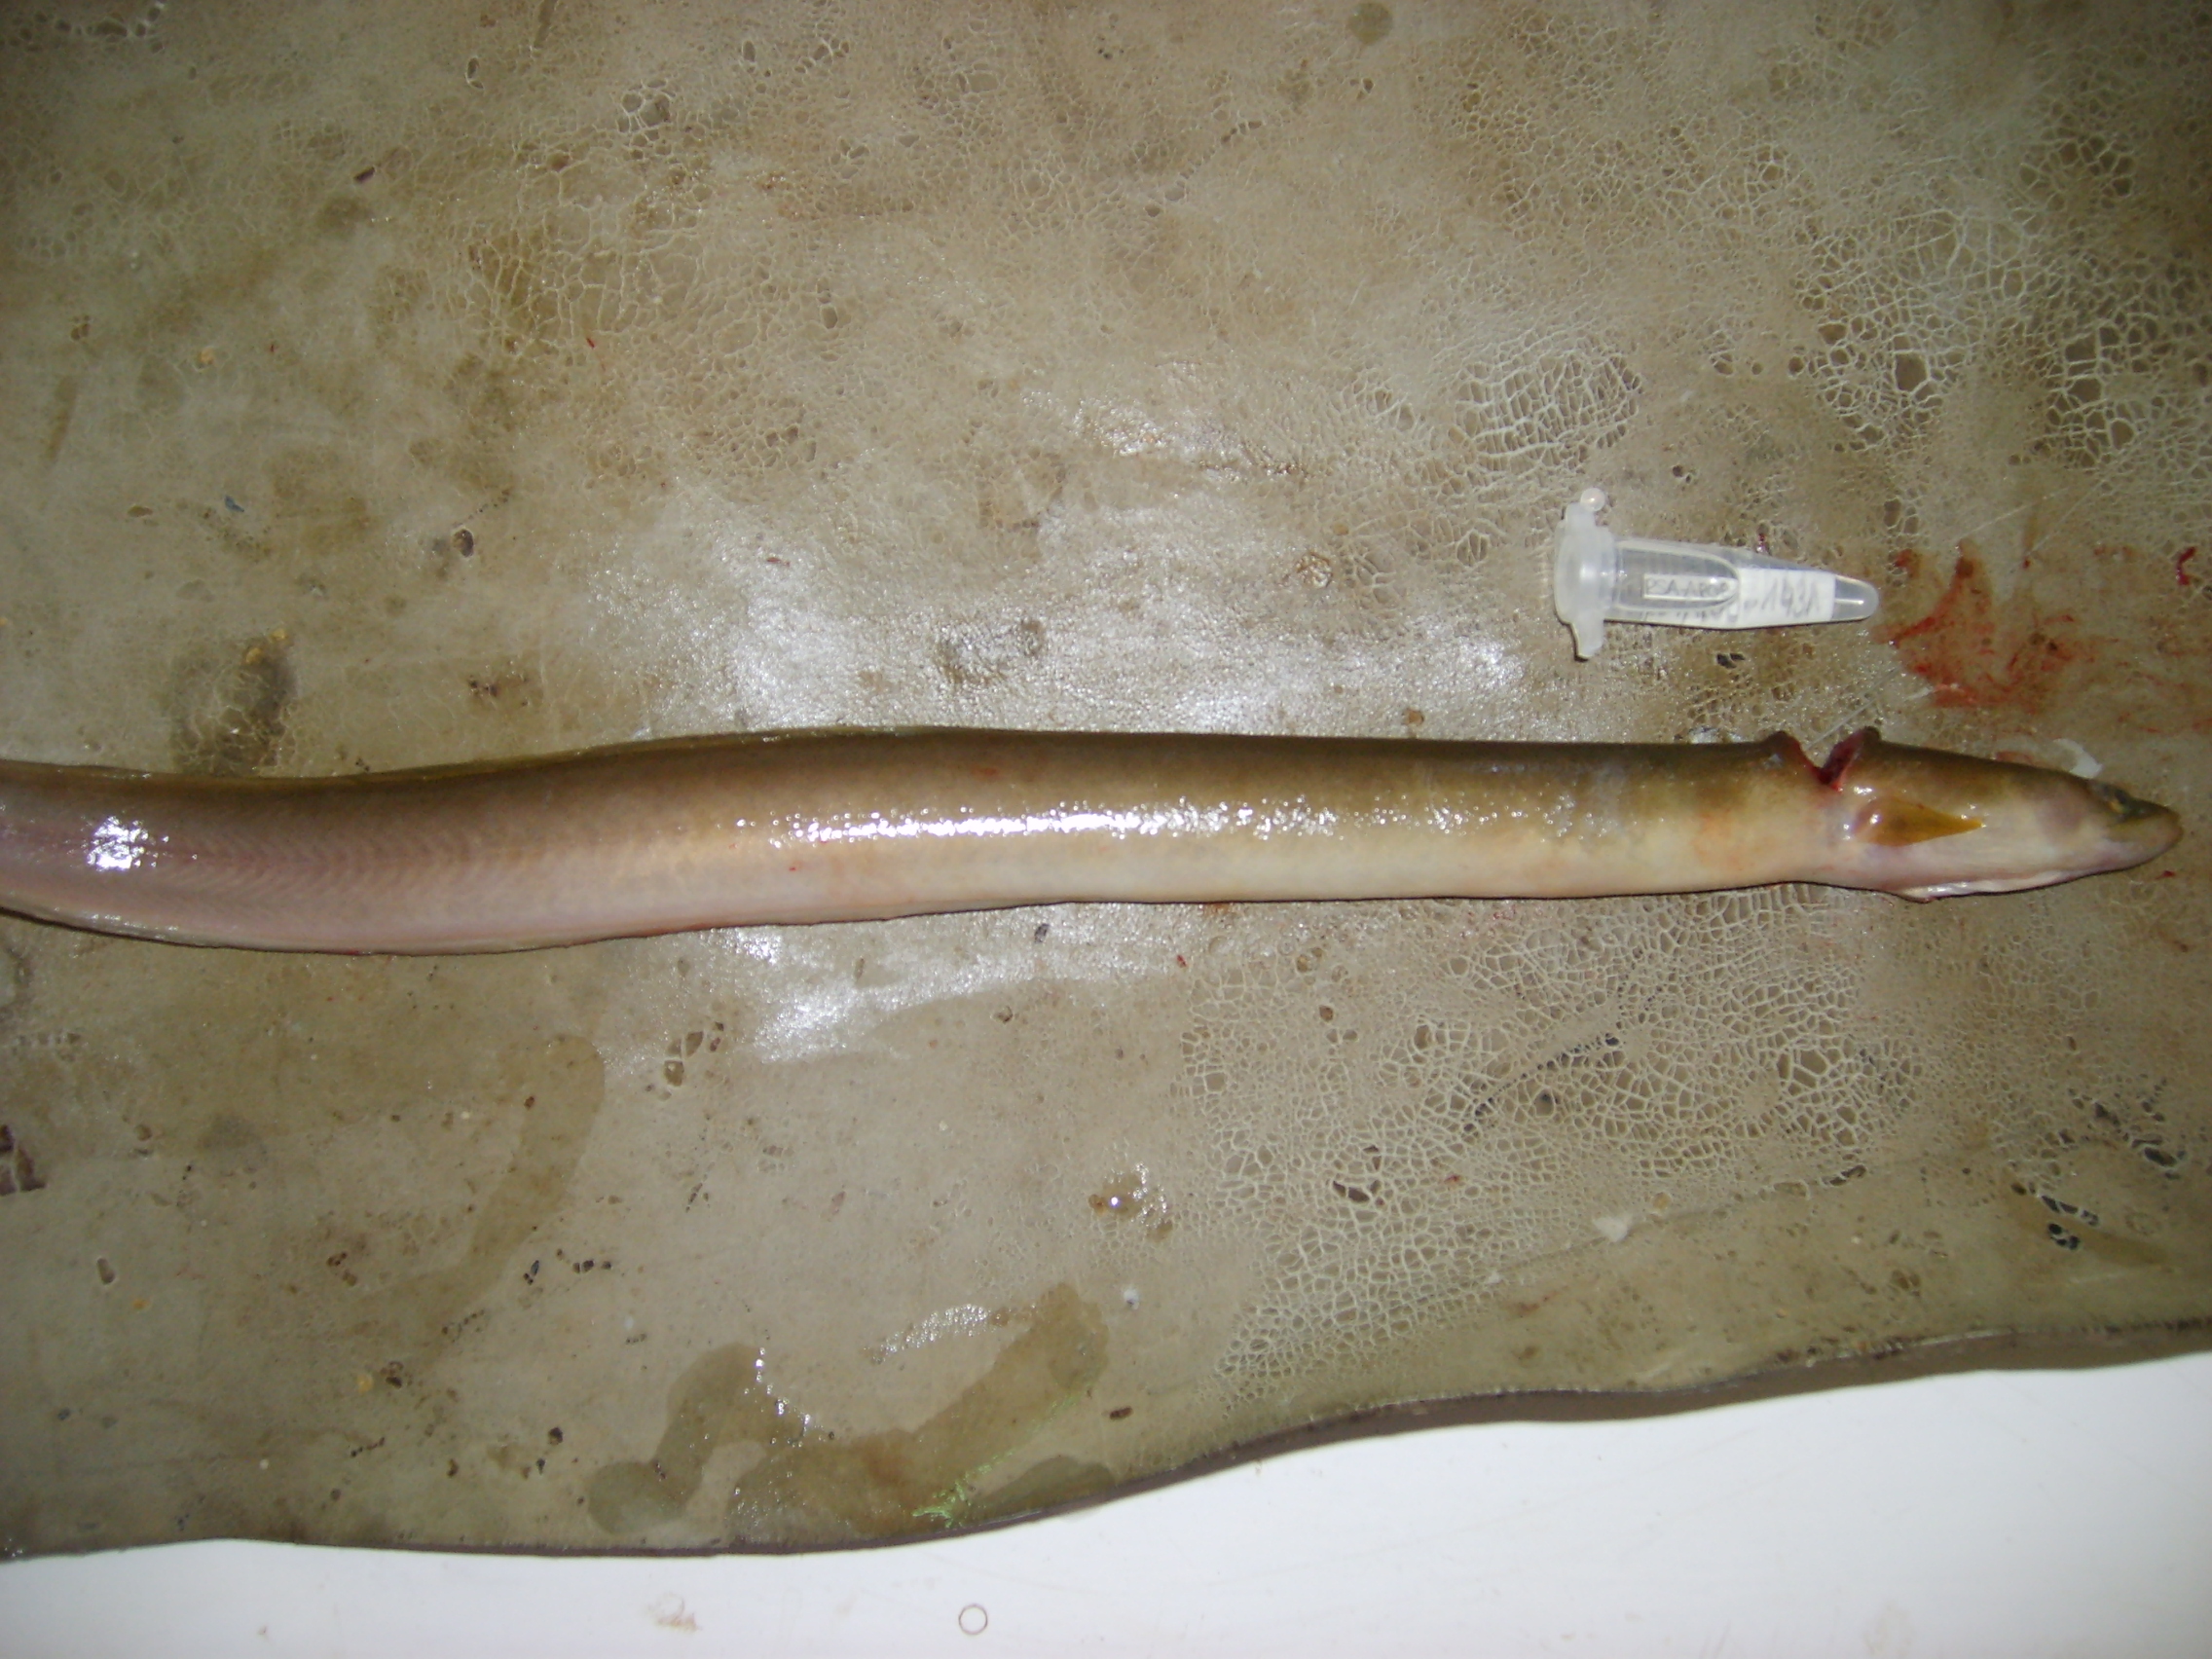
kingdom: Animalia
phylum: Chordata
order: Anguilliformes
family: Anguillidae
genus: Anguilla
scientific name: Anguilla mossambica
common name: African longfin eel
